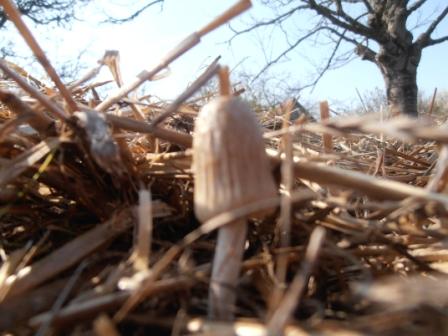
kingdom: Fungi
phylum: Basidiomycota
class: Agaricomycetes
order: Agaricales
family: Bolbitiaceae
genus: Panaeolus
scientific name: Panaeolus semiovatus
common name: ring-glanshat
